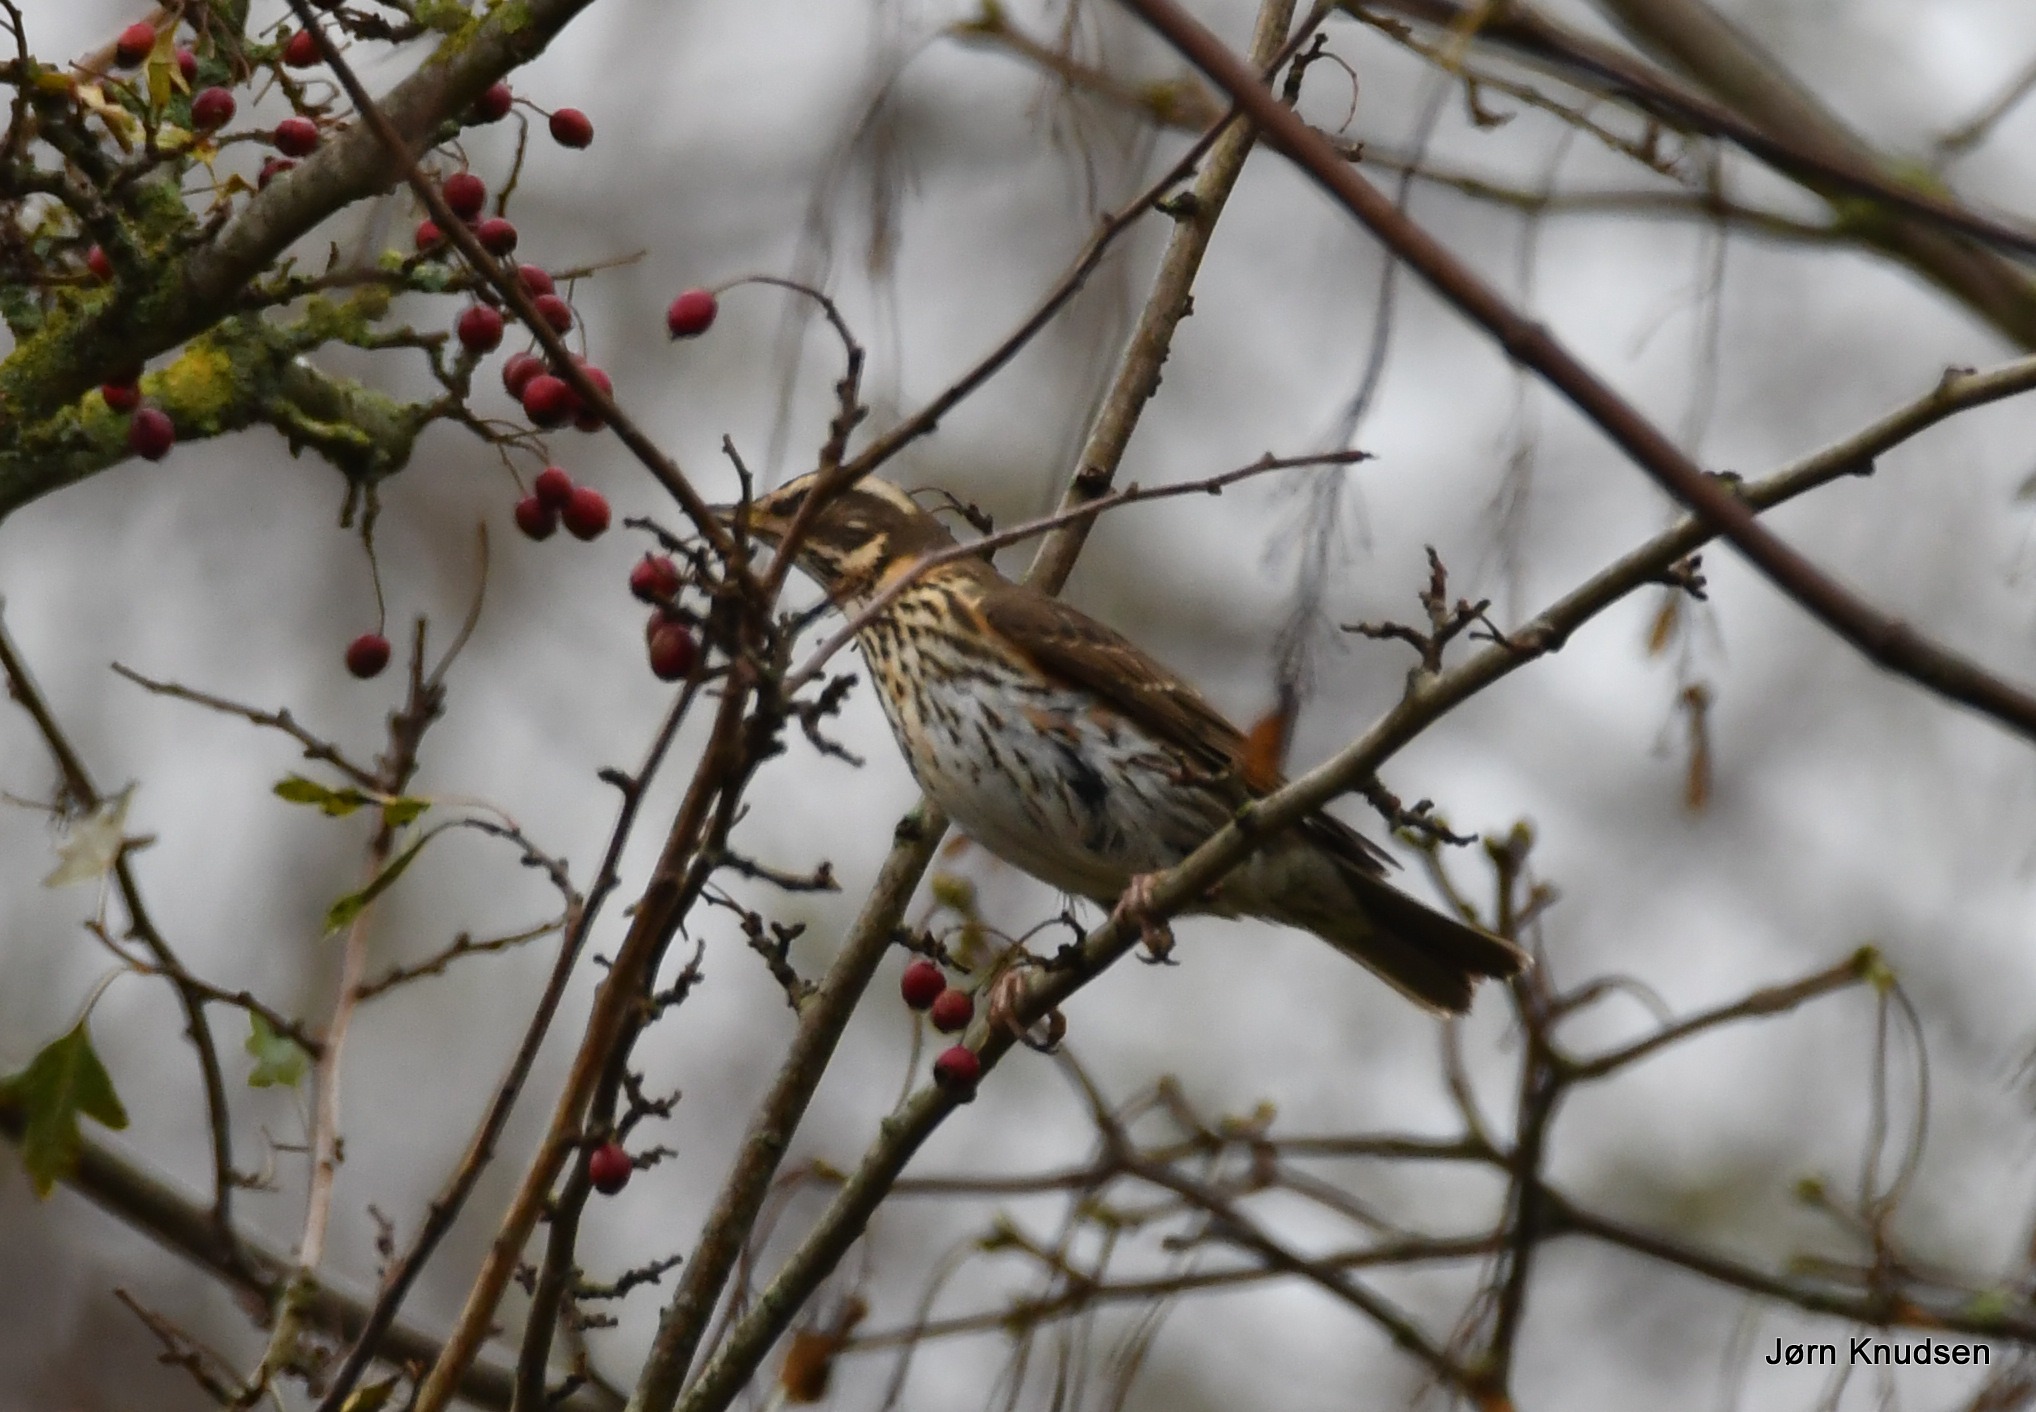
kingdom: Animalia
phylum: Chordata
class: Aves
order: Passeriformes
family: Turdidae
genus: Turdus
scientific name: Turdus iliacus
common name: Vindrossel
